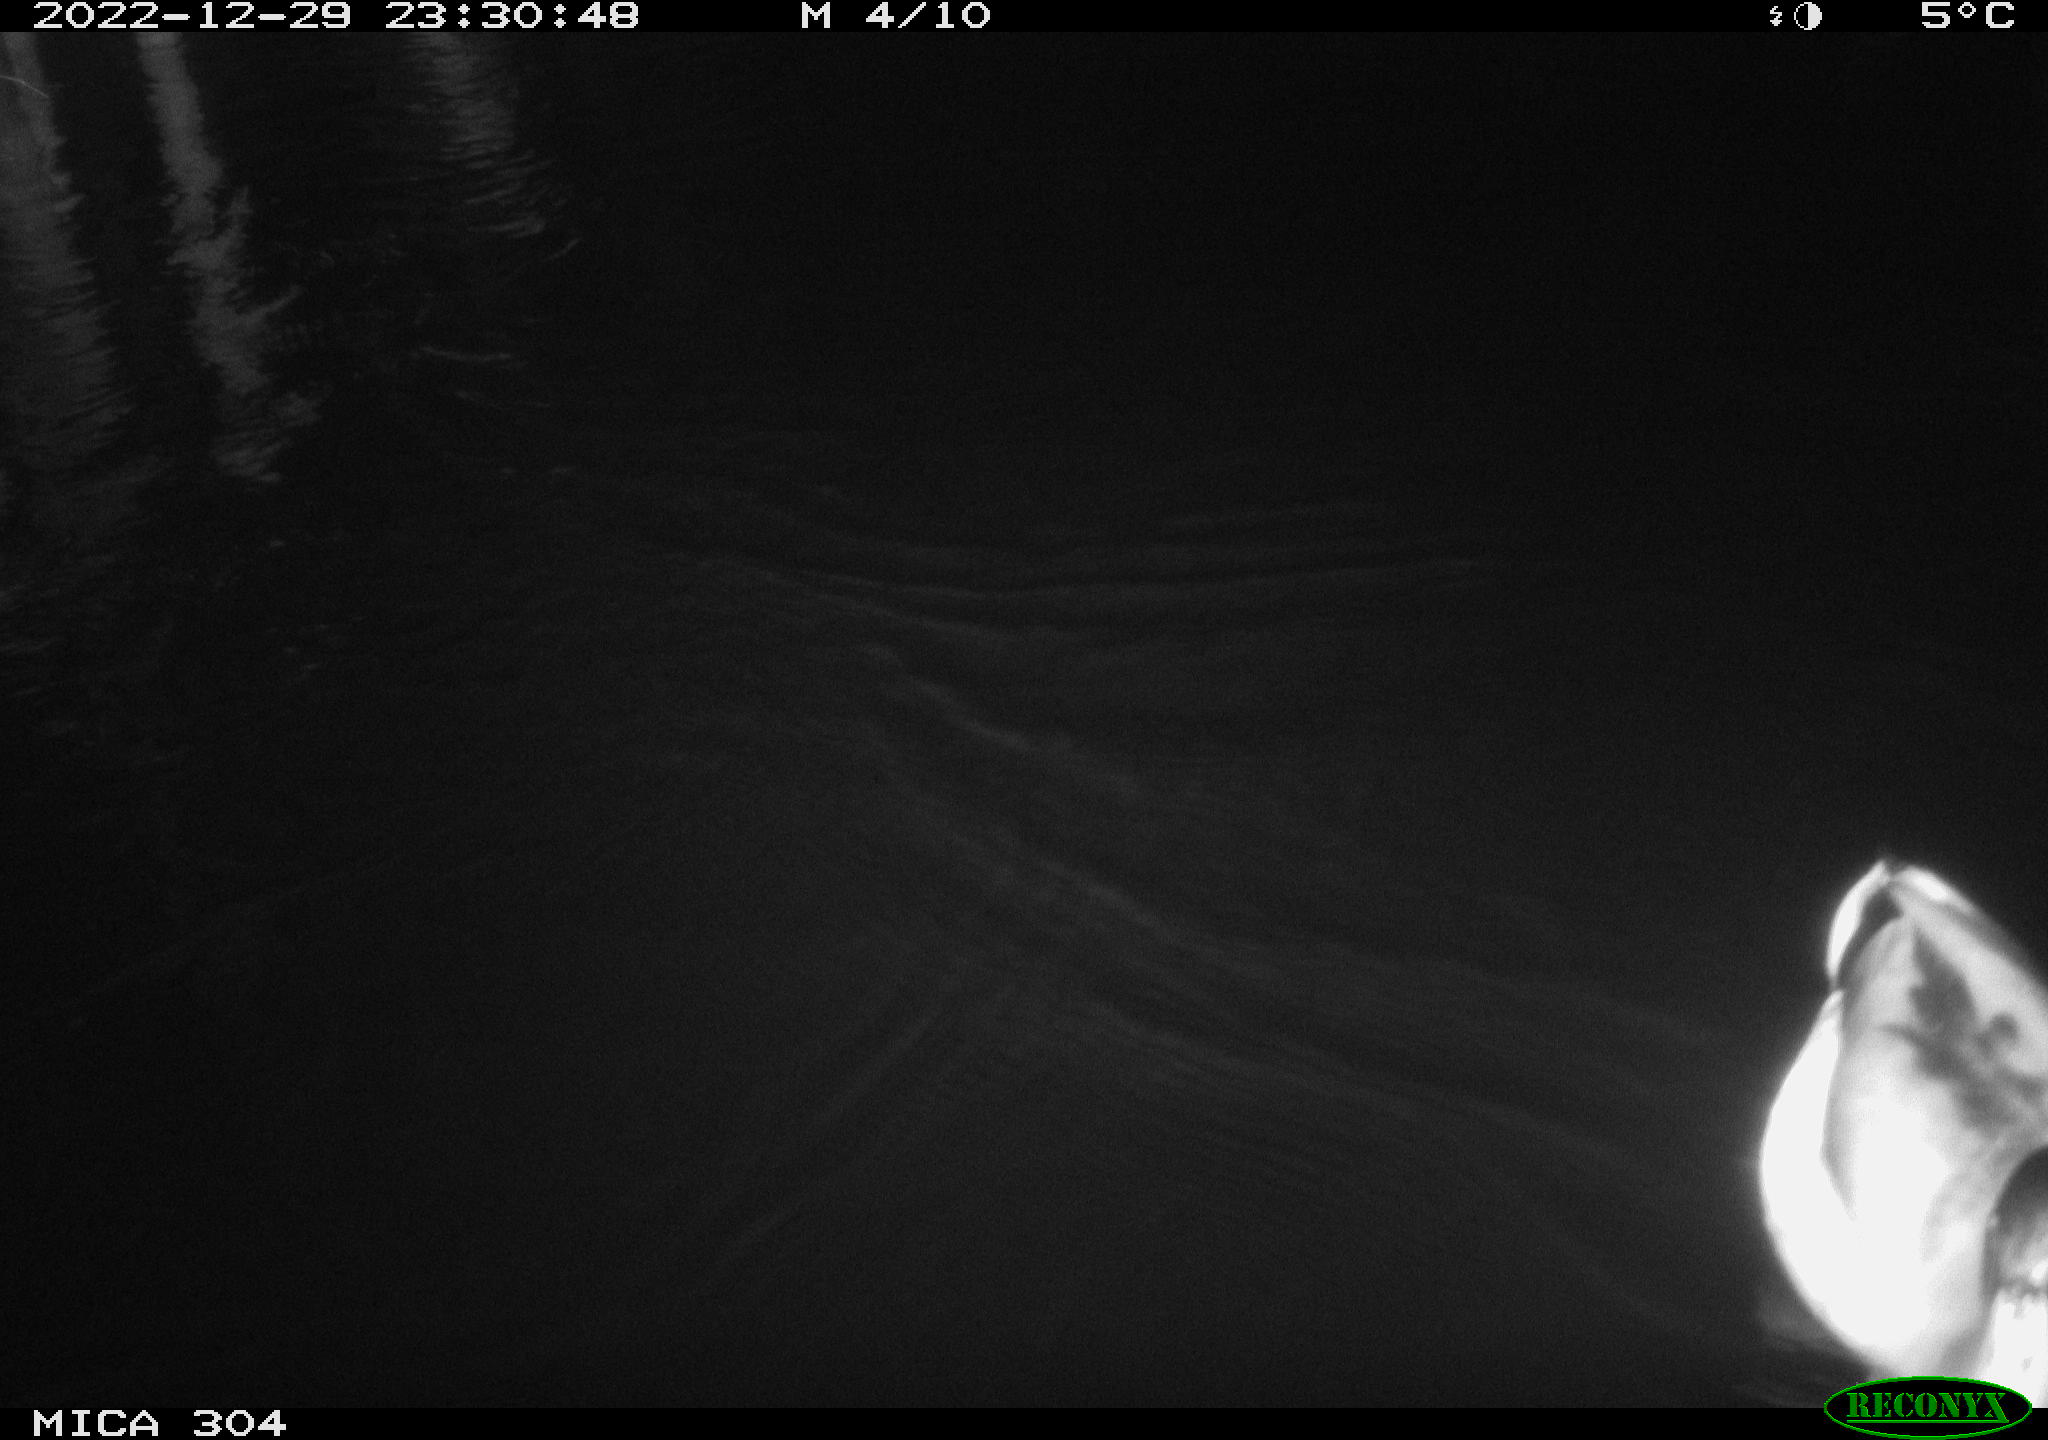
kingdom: Animalia
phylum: Chordata
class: Aves
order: Anseriformes
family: Anatidae
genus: Anas
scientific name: Anas
